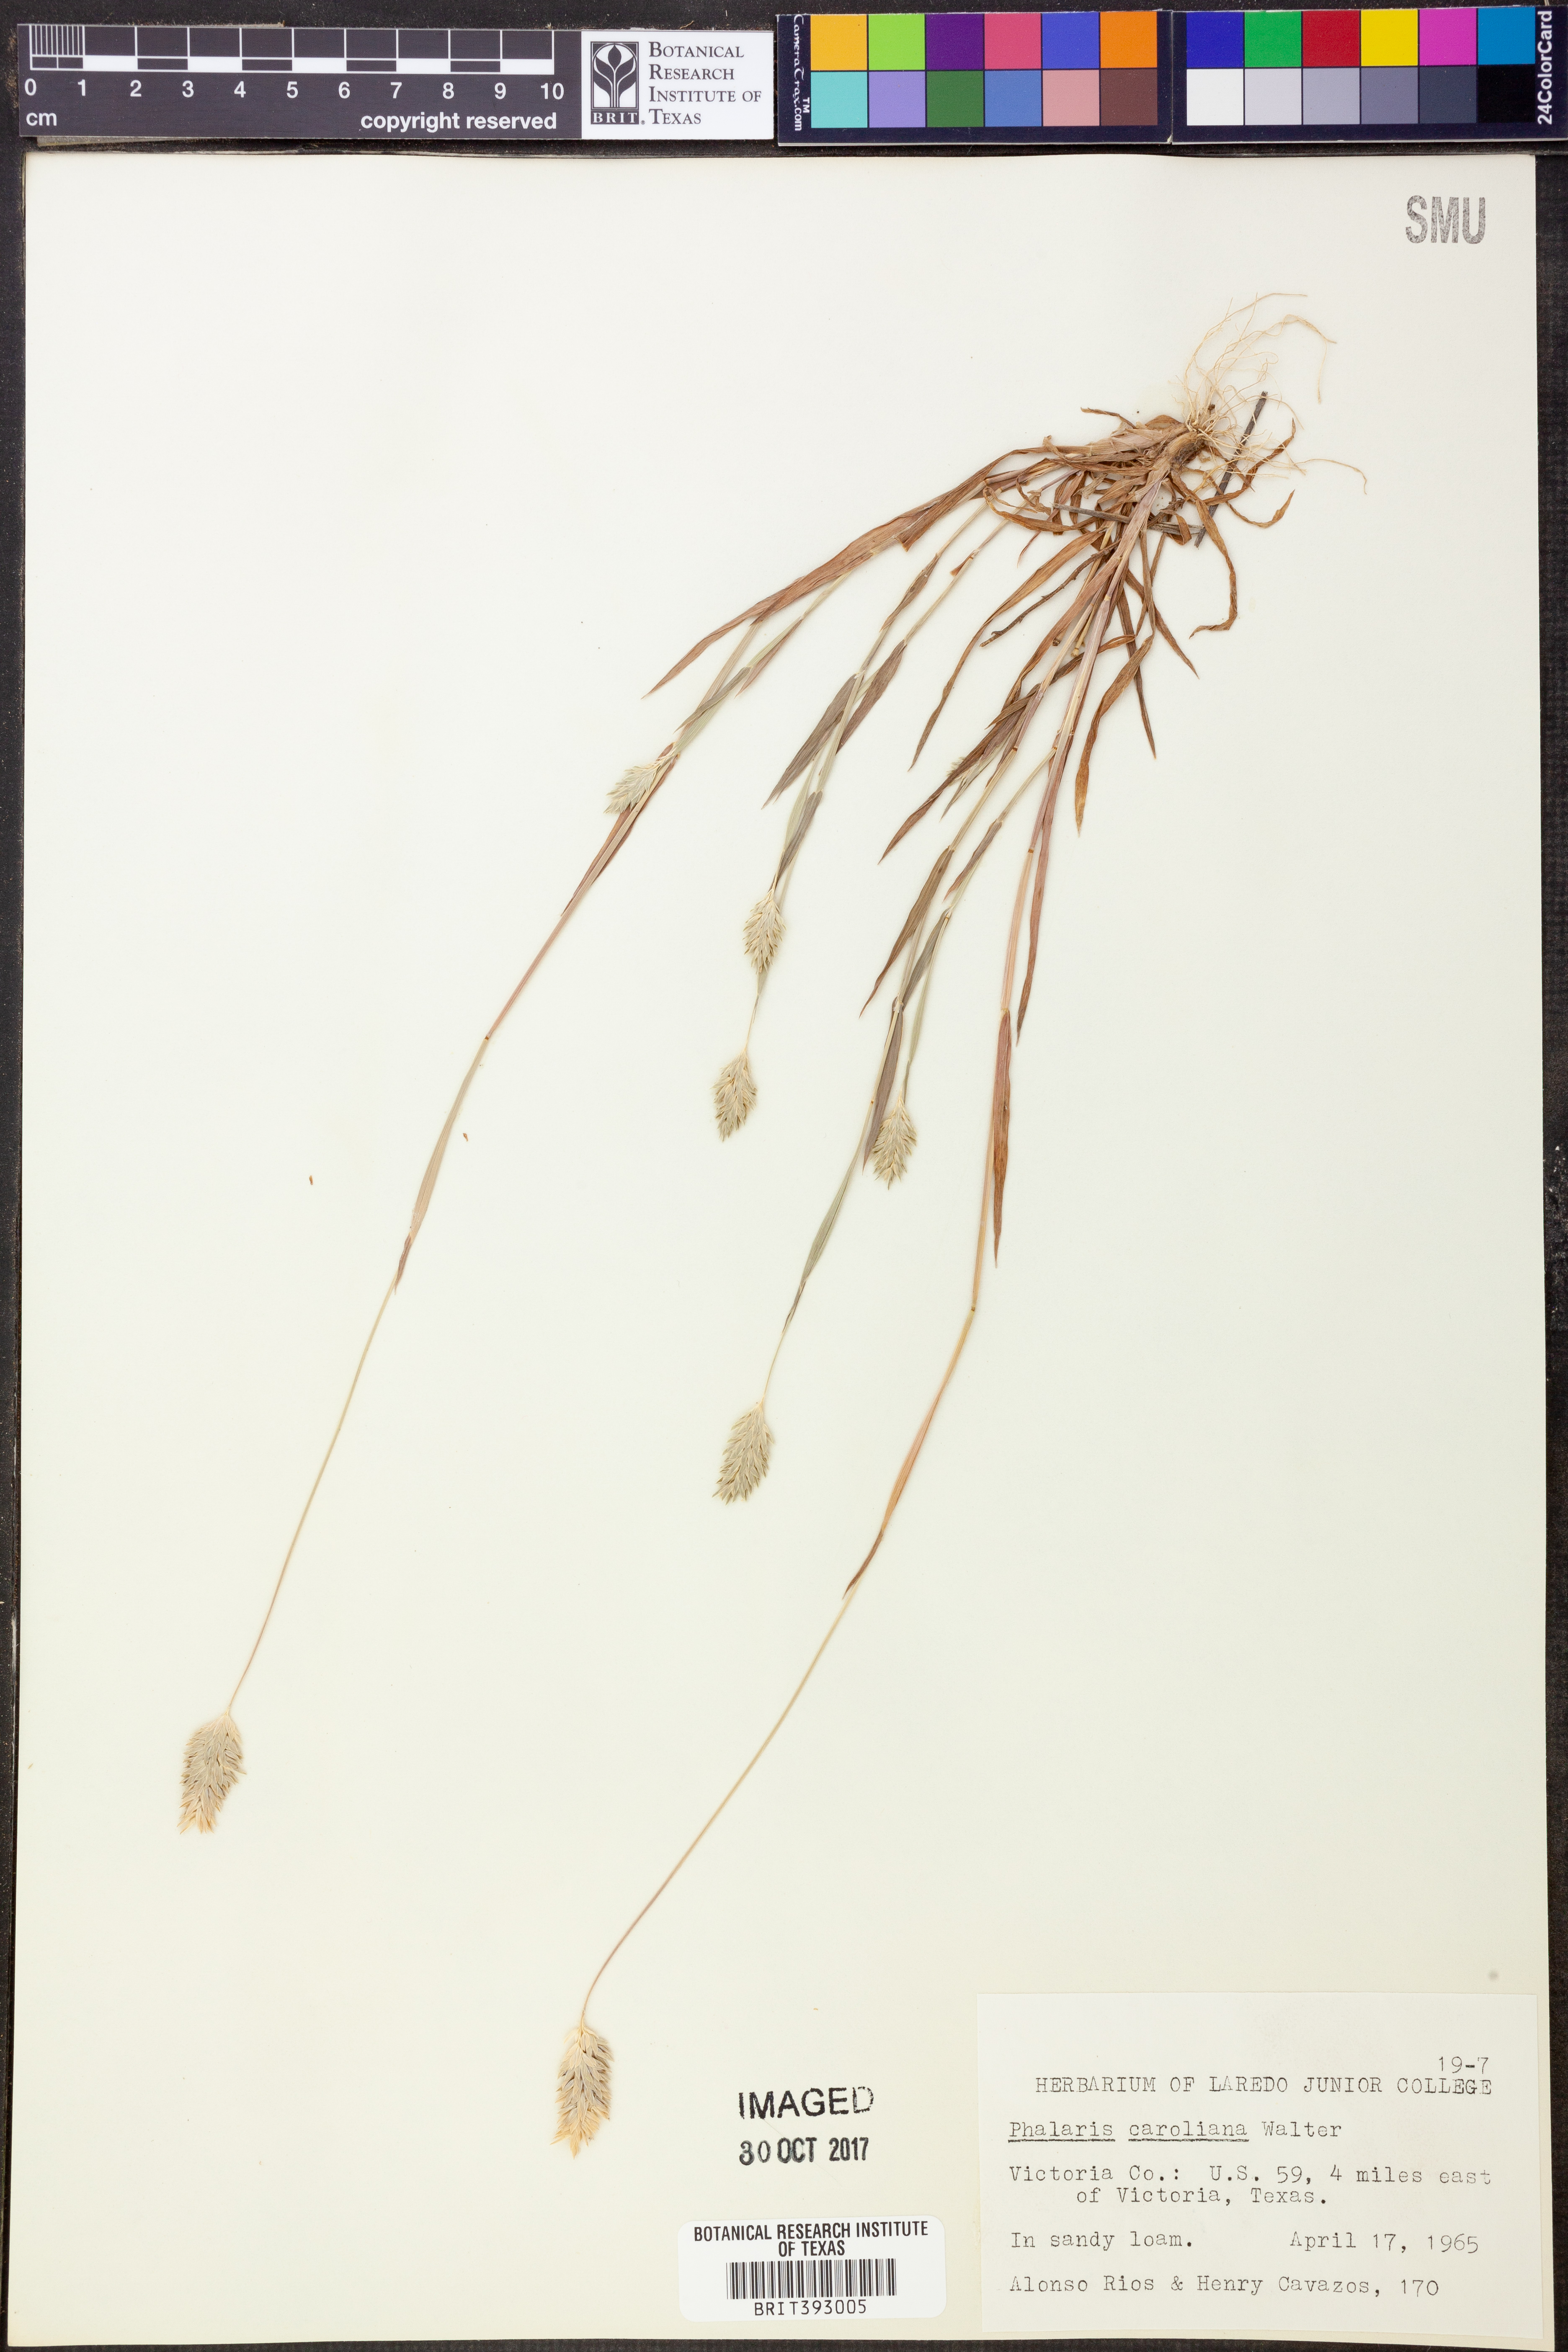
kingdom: Plantae
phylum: Tracheophyta
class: Liliopsida
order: Poales
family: Poaceae
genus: Phalaris
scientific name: Phalaris caroliniana
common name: May grass
